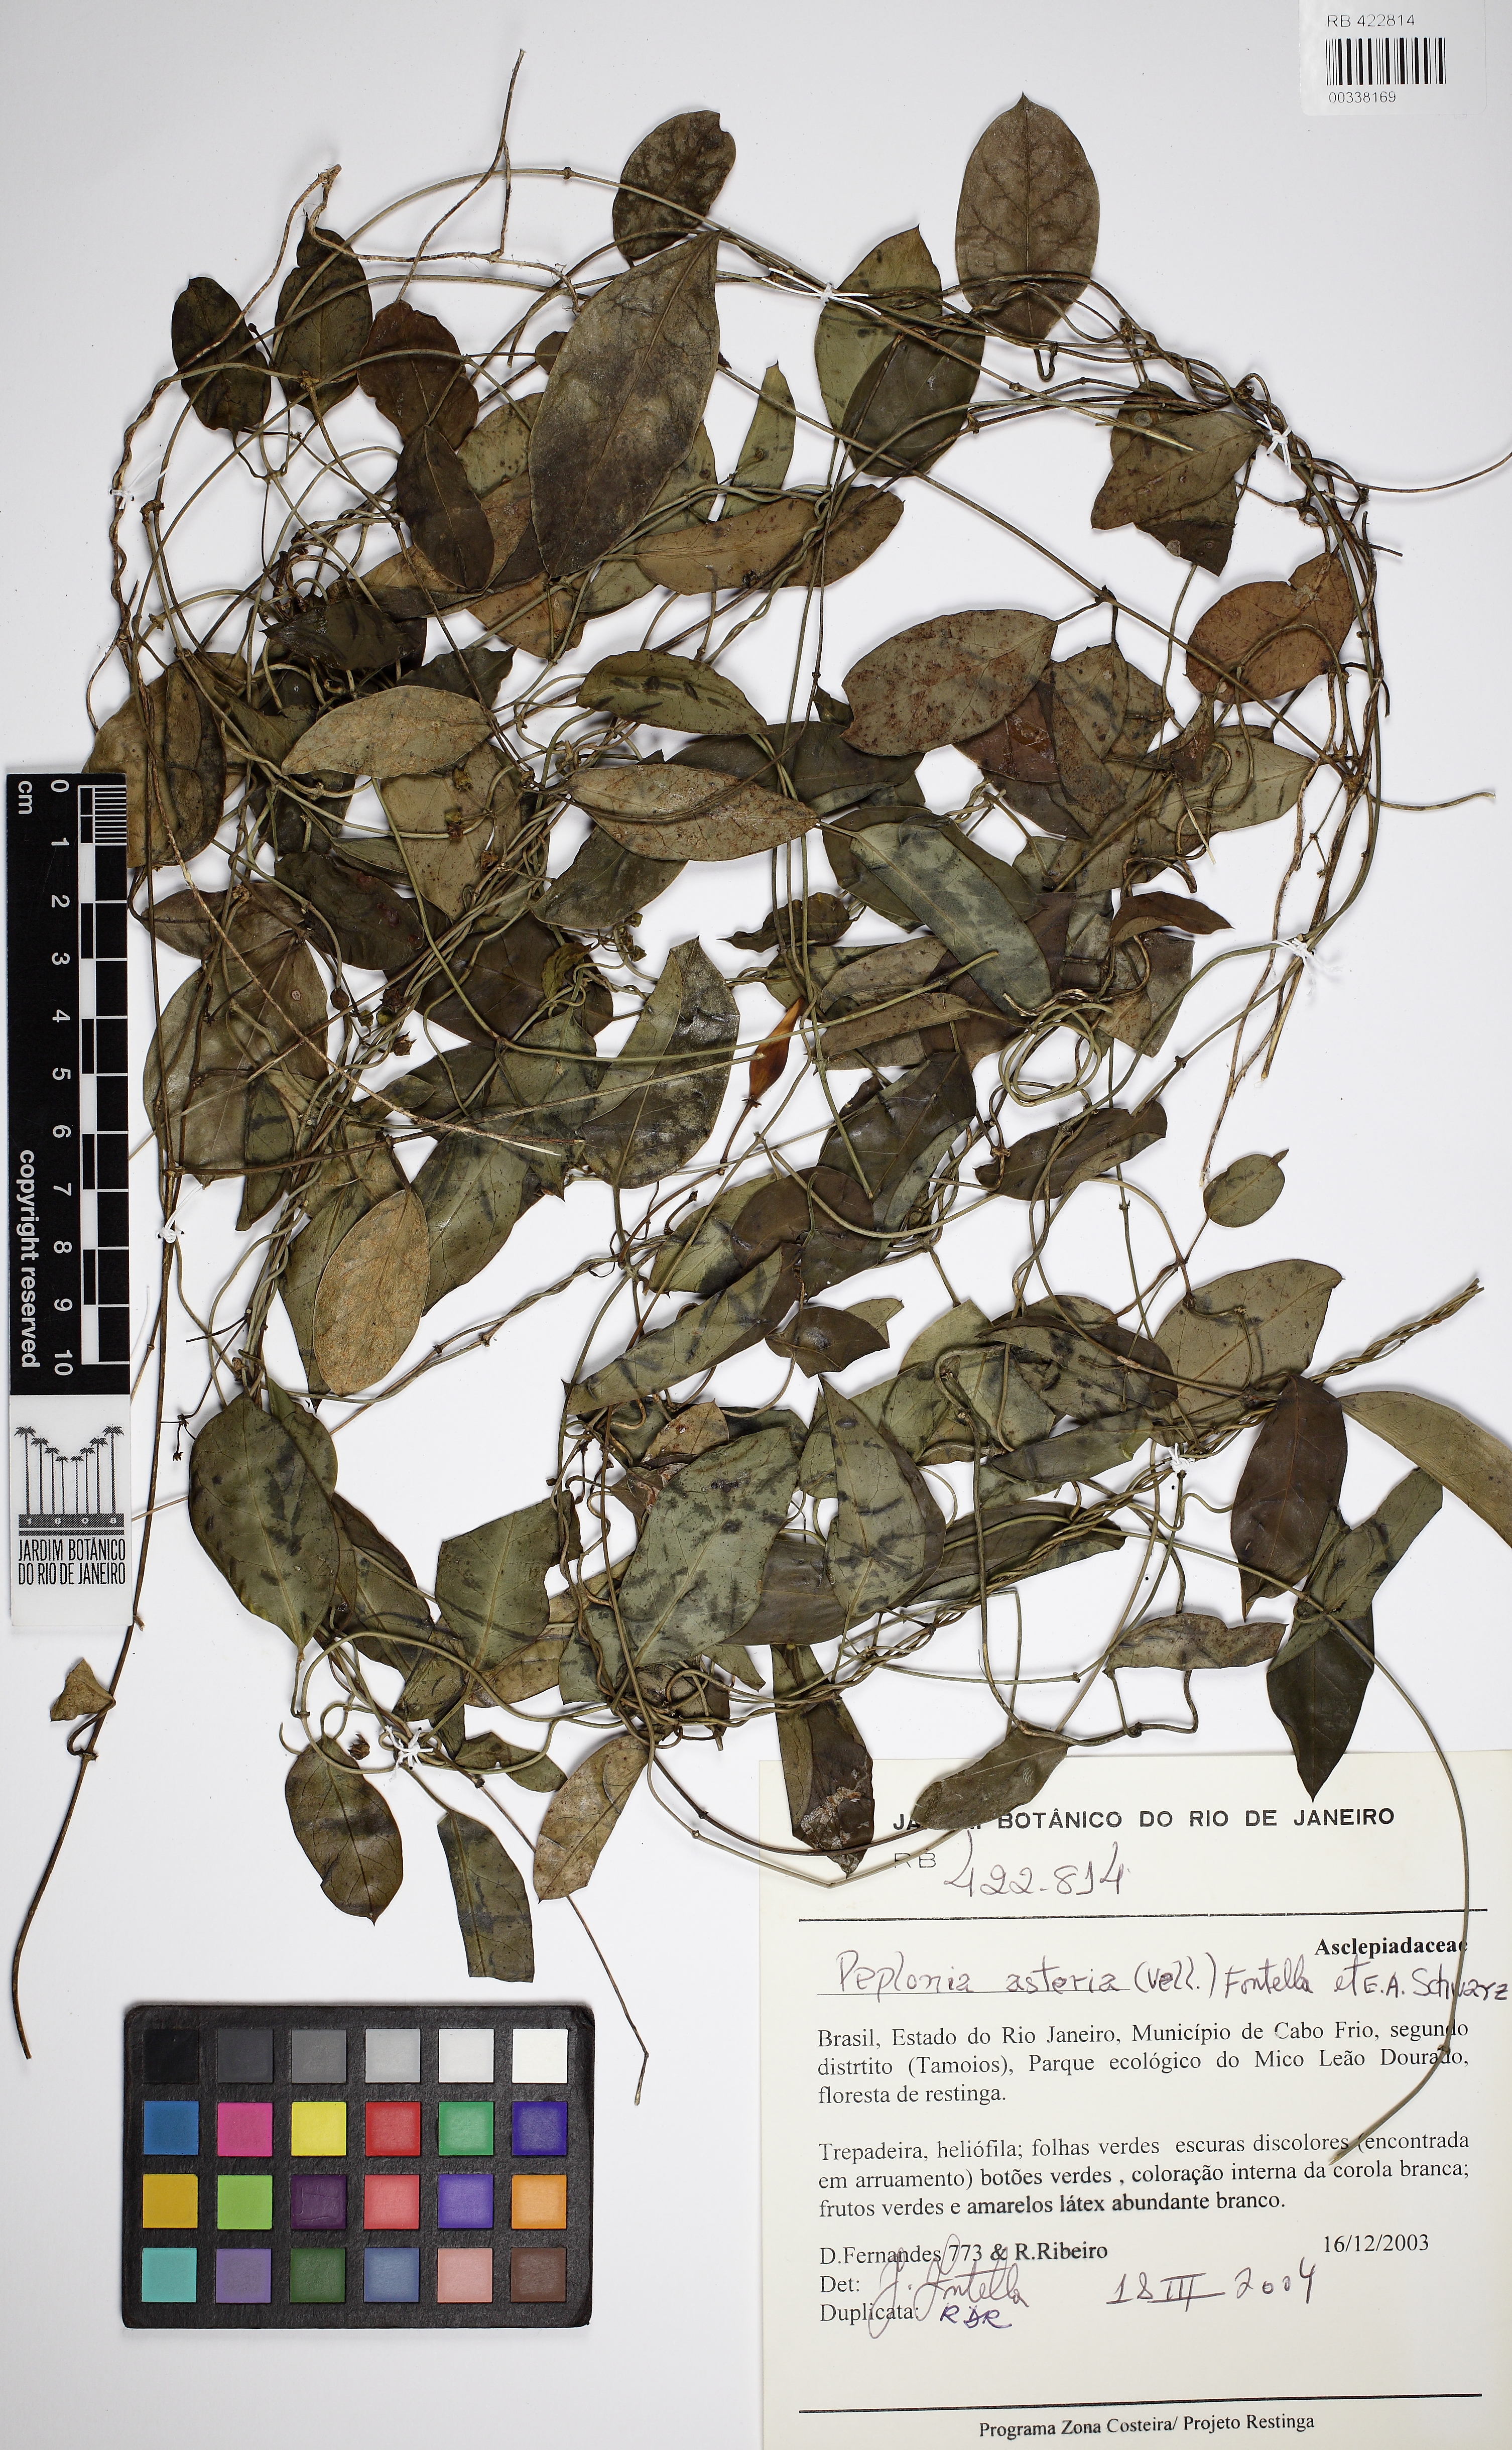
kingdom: Plantae
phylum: Tracheophyta
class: Magnoliopsida
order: Gentianales
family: Apocynaceae
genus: Peplonia
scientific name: Peplonia asteria
